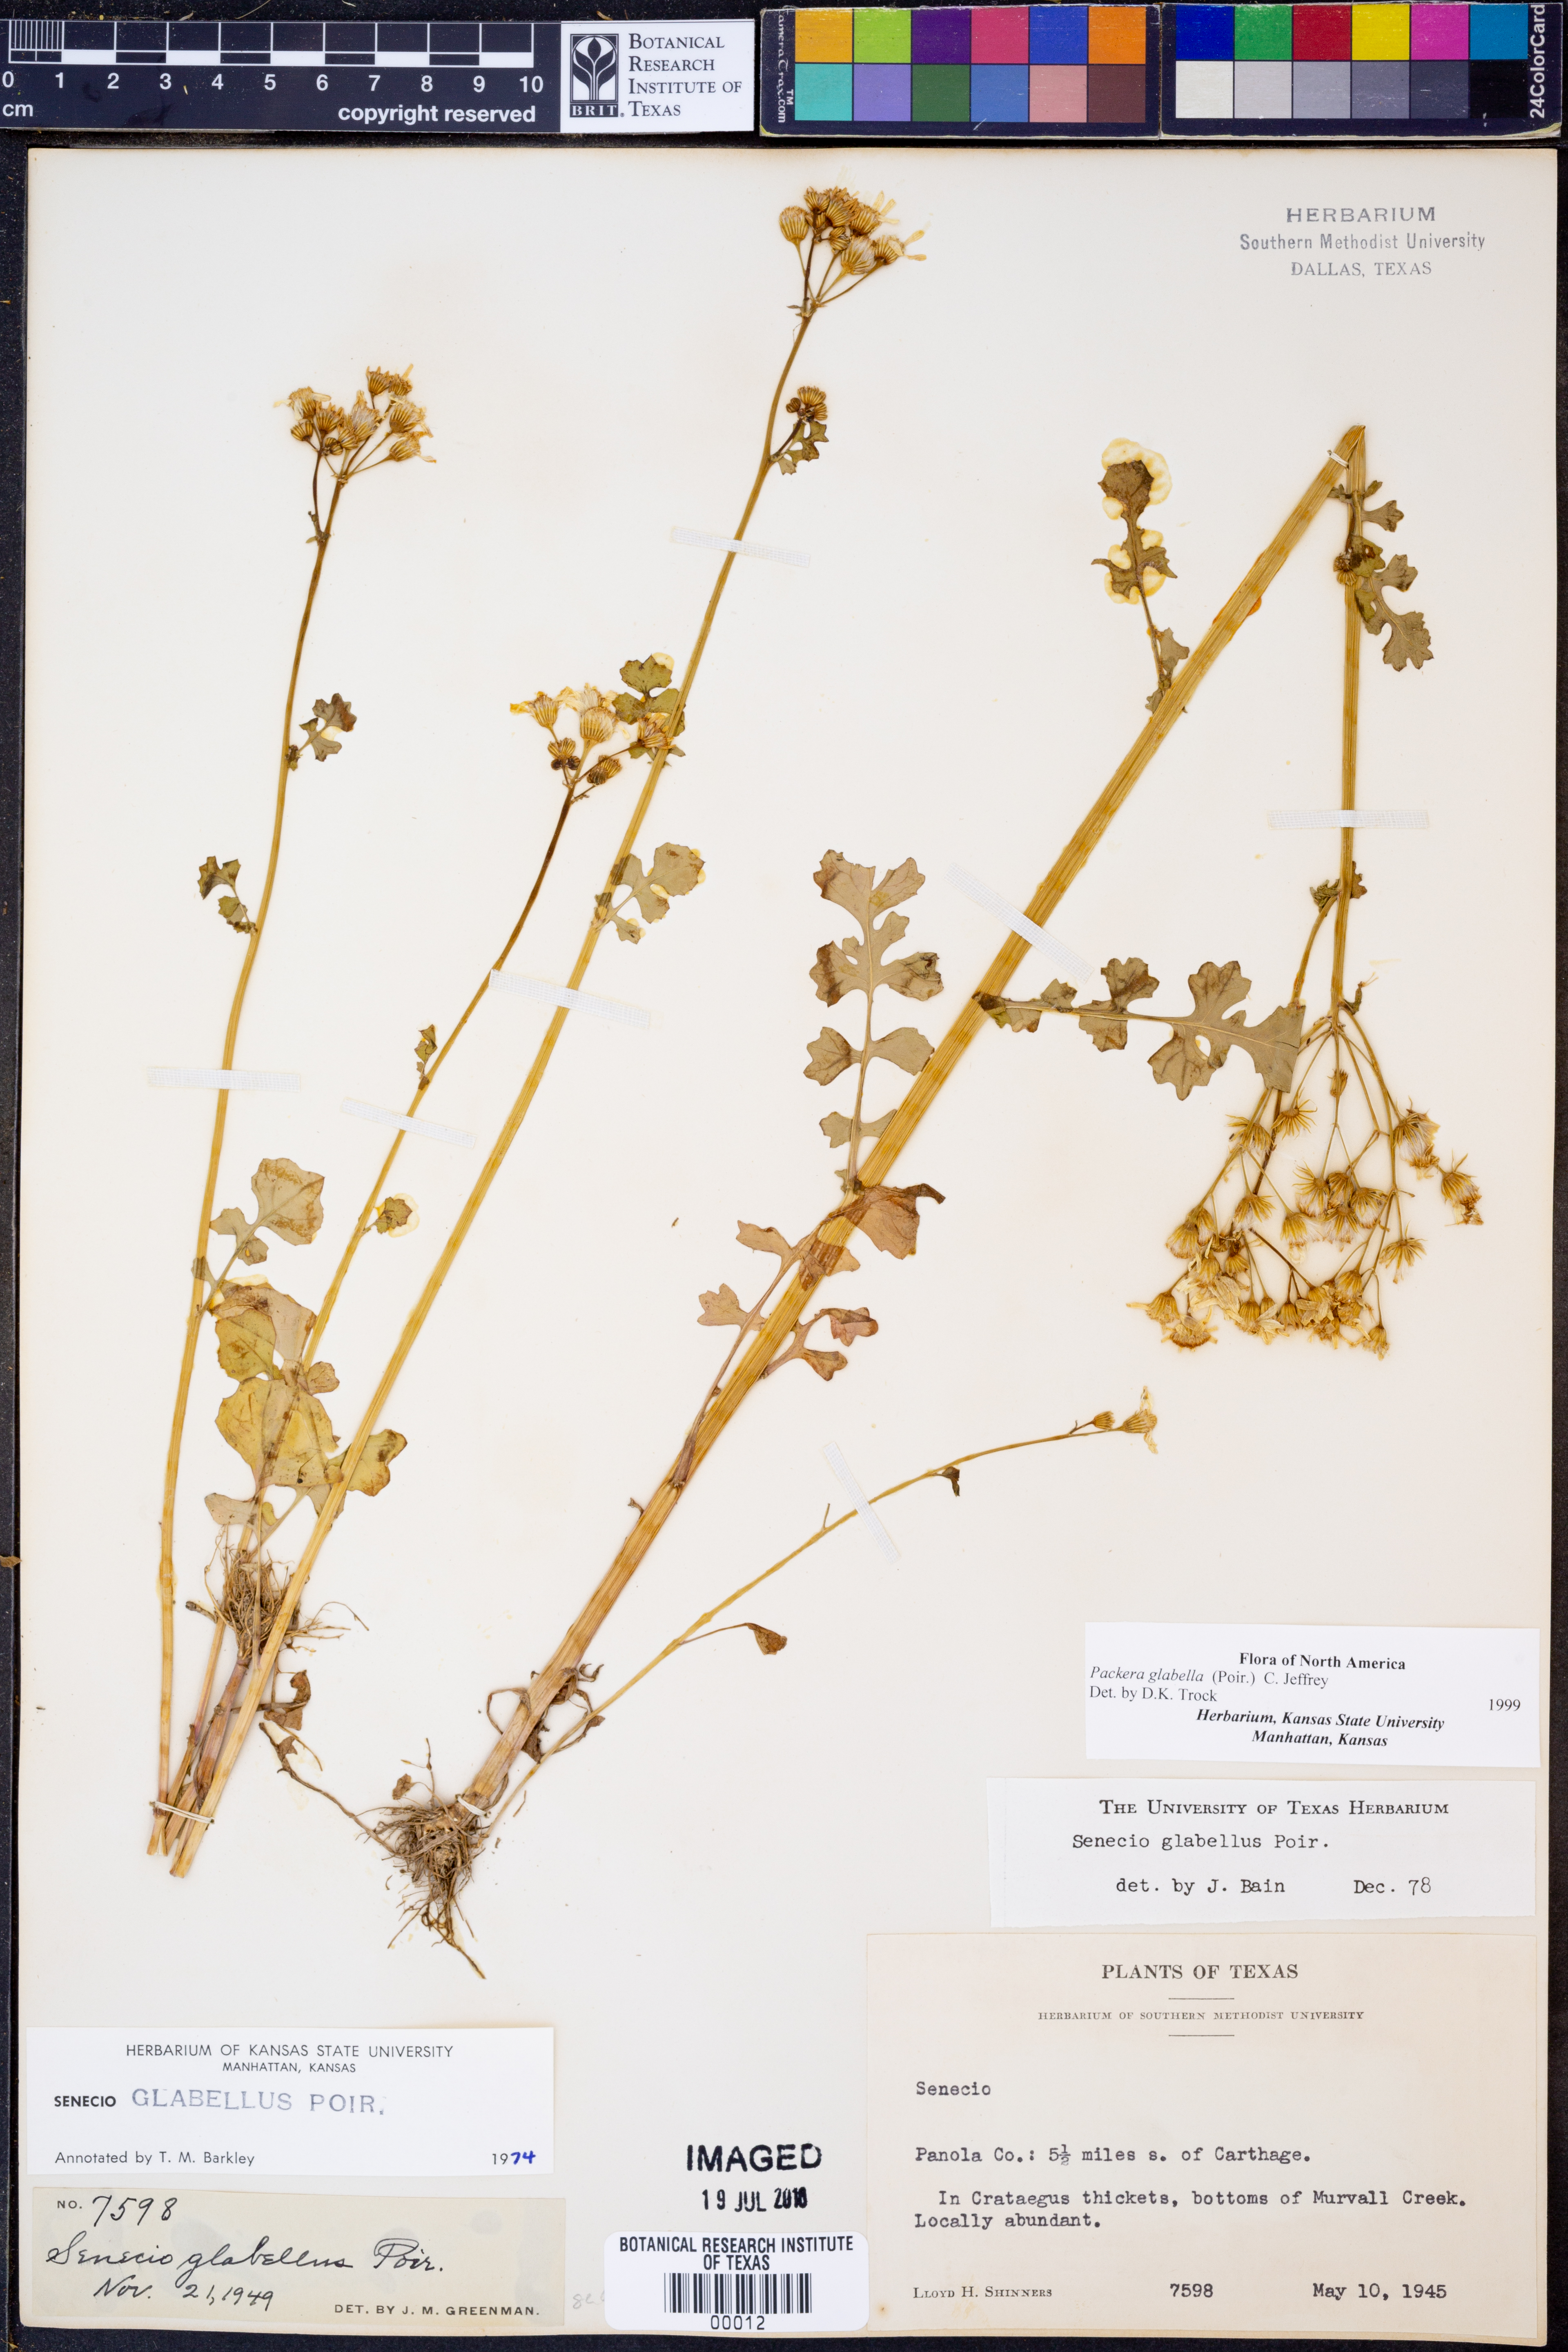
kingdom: Plantae
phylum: Tracheophyta
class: Magnoliopsida
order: Asterales
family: Asteraceae
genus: Packera
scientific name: Packera glabella
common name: Butterweed
